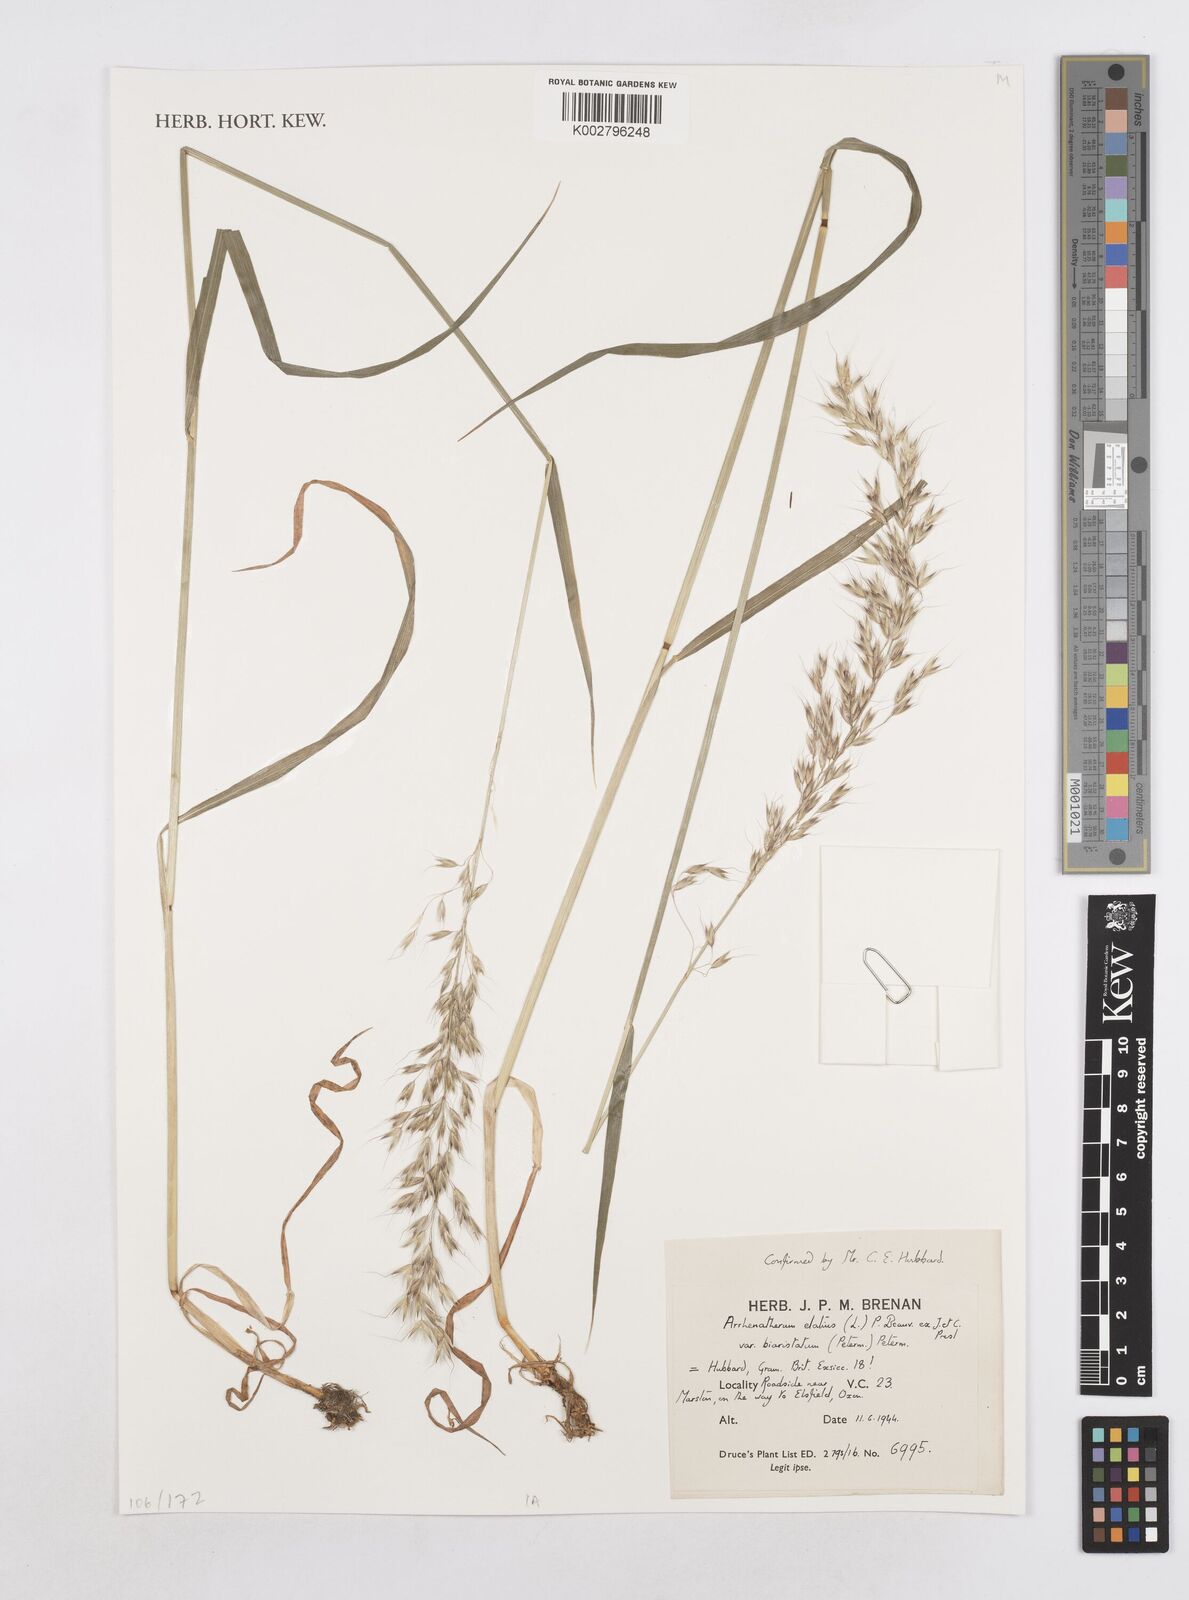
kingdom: Plantae
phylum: Tracheophyta
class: Liliopsida
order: Poales
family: Poaceae
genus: Arrhenatherum
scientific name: Arrhenatherum elatius
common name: Tall oatgrass
